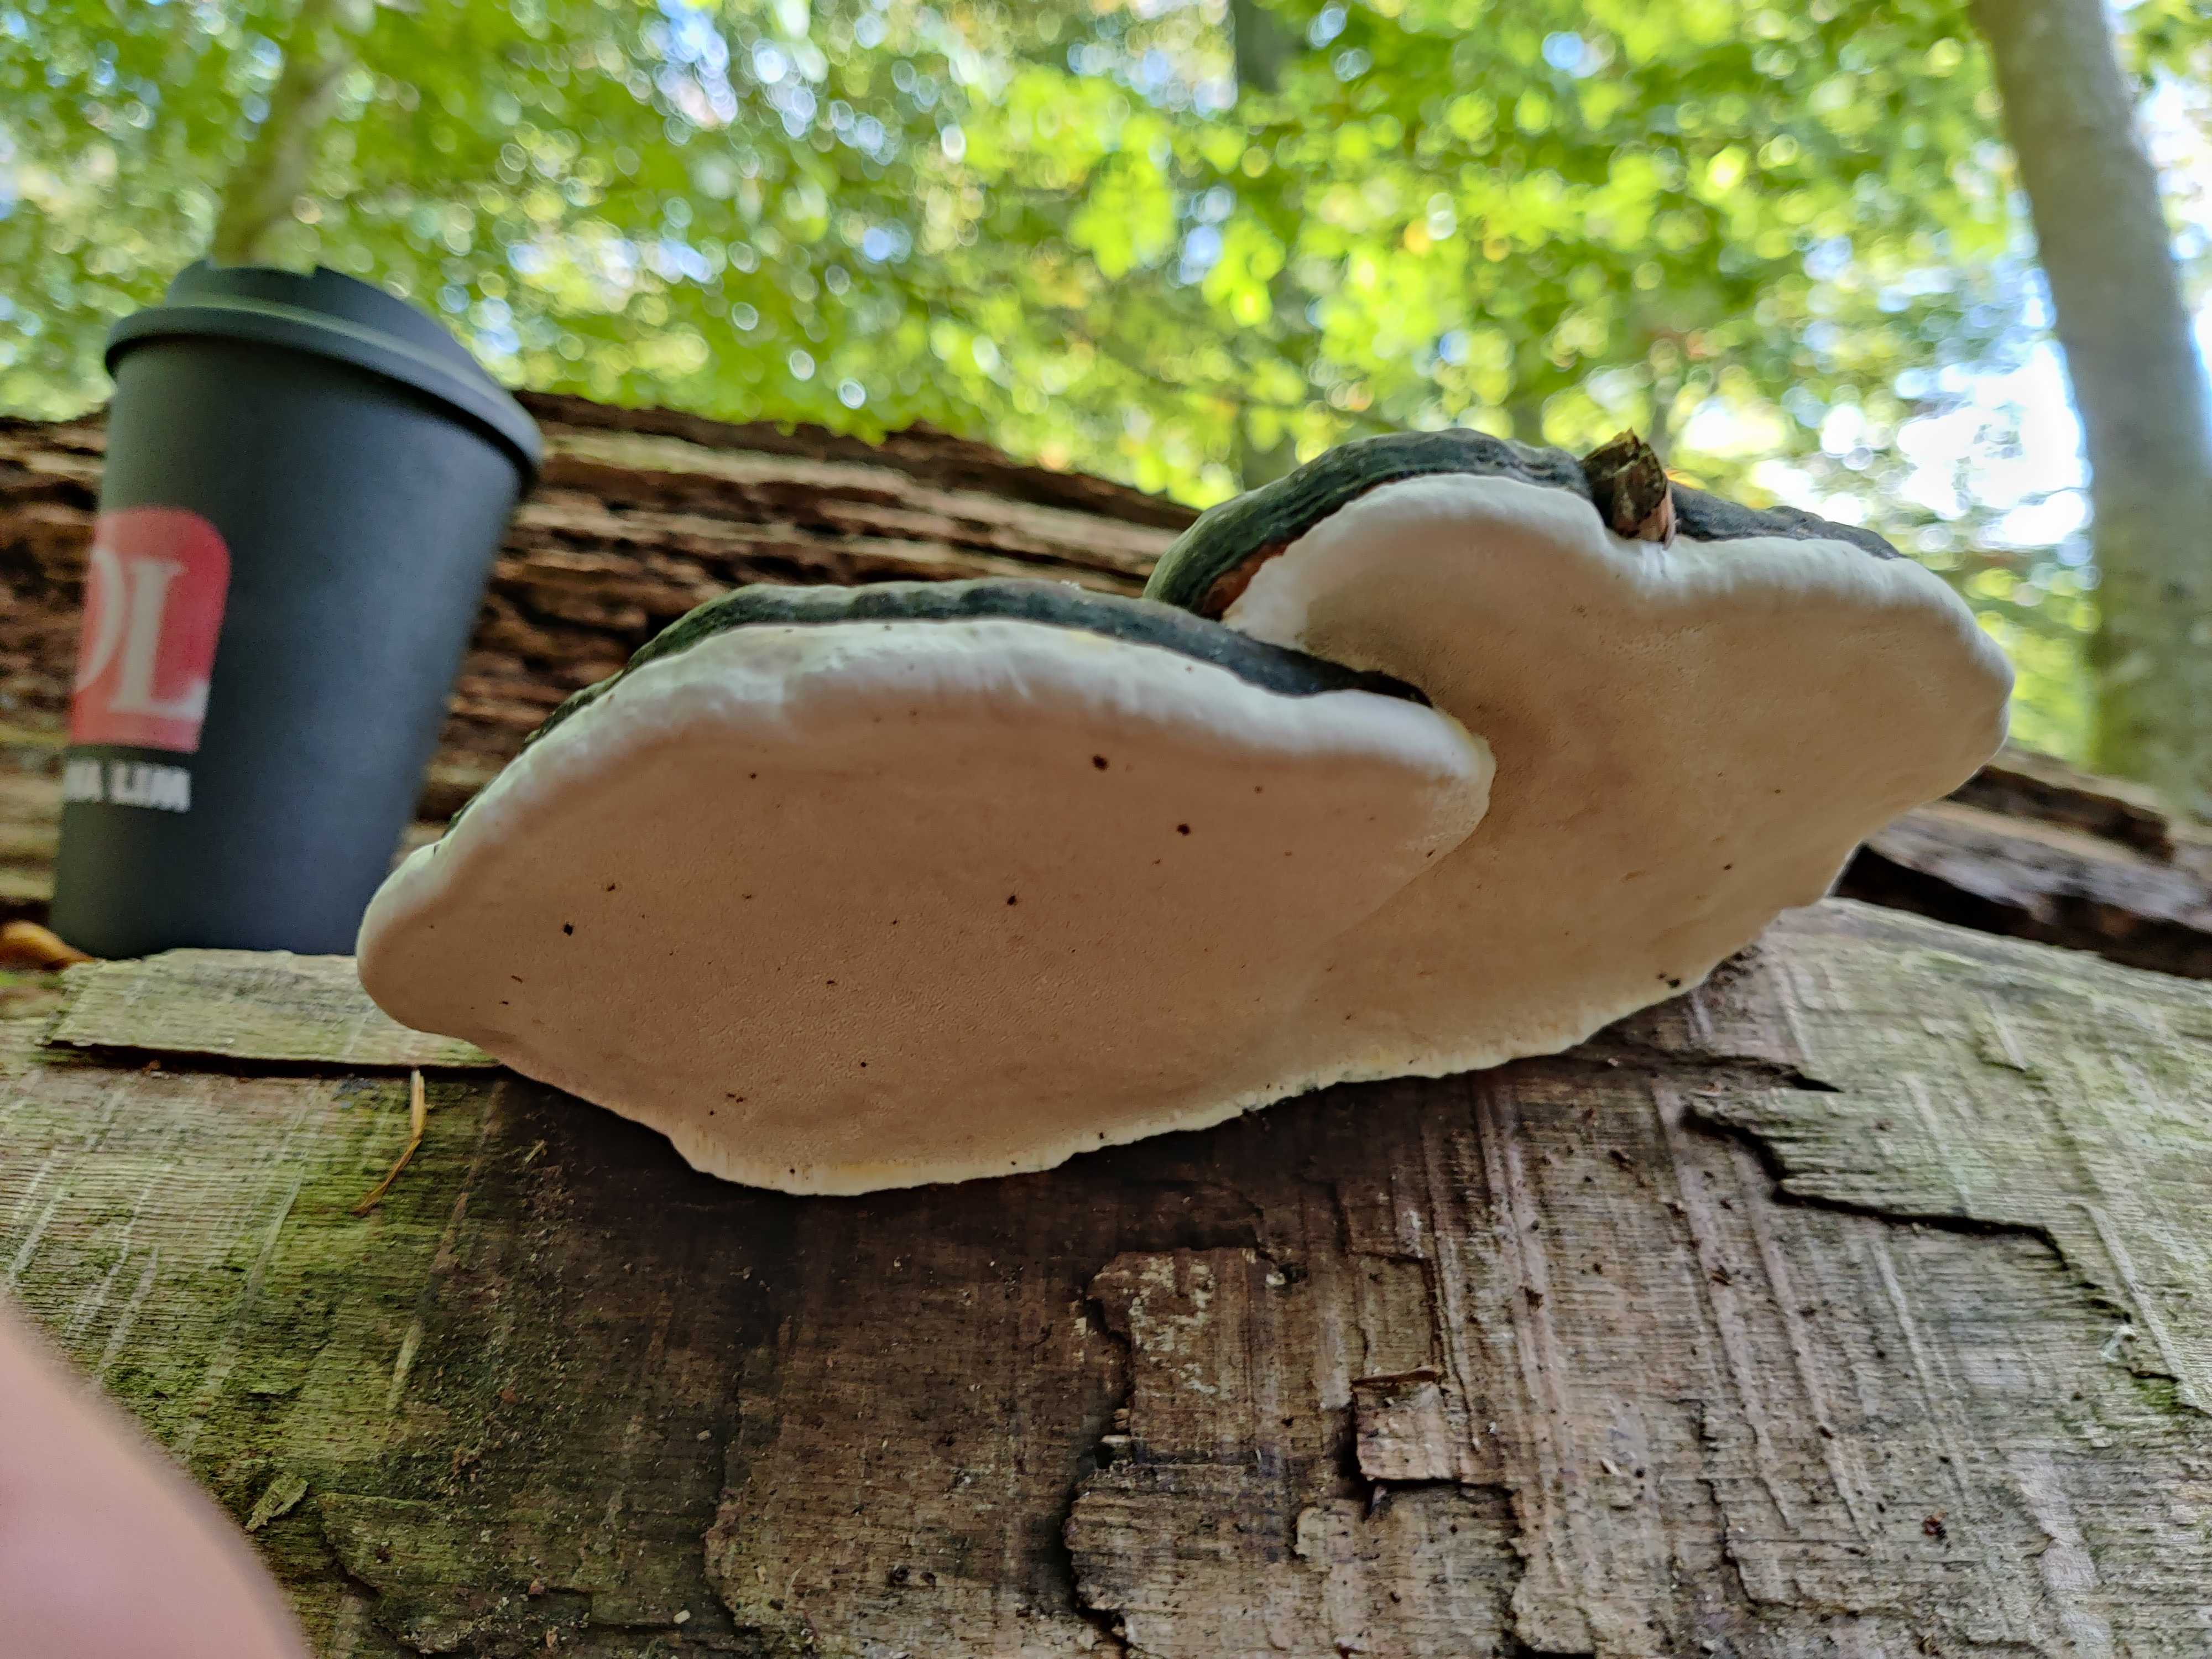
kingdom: Fungi
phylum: Basidiomycota
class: Agaricomycetes
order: Polyporales
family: Fomitopsidaceae
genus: Fomitopsis
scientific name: Fomitopsis pinicola
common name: randbæltet hovporesvamp
